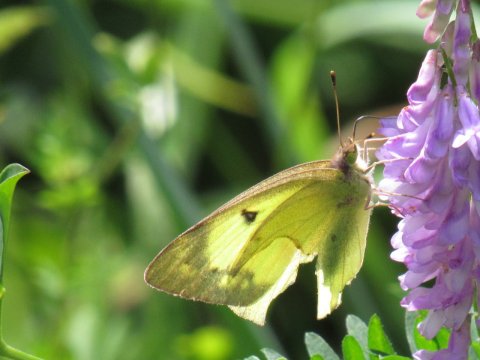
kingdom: Animalia
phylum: Arthropoda
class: Insecta
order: Lepidoptera
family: Pieridae
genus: Colias
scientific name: Colias philodice
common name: Clouded Sulphur
